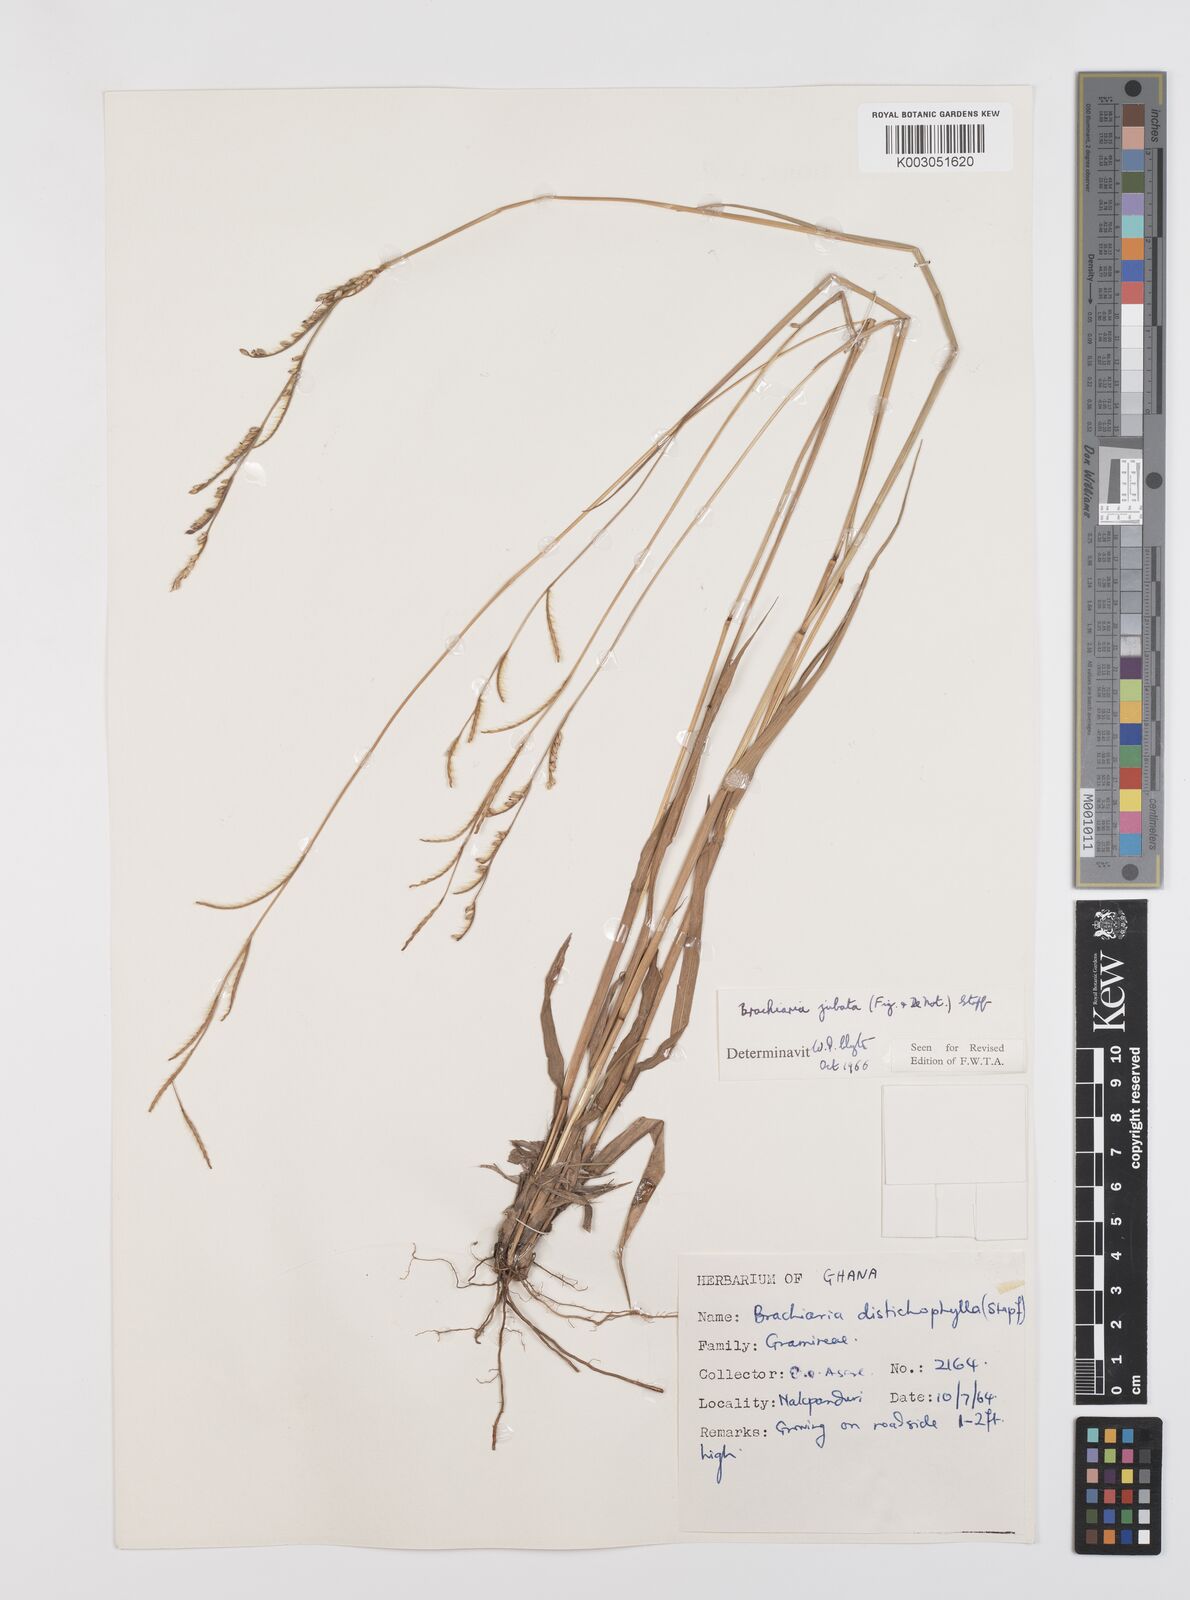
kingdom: Plantae
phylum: Tracheophyta
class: Liliopsida
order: Poales
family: Poaceae
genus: Urochloa
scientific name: Urochloa jubata
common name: Buffalograss
